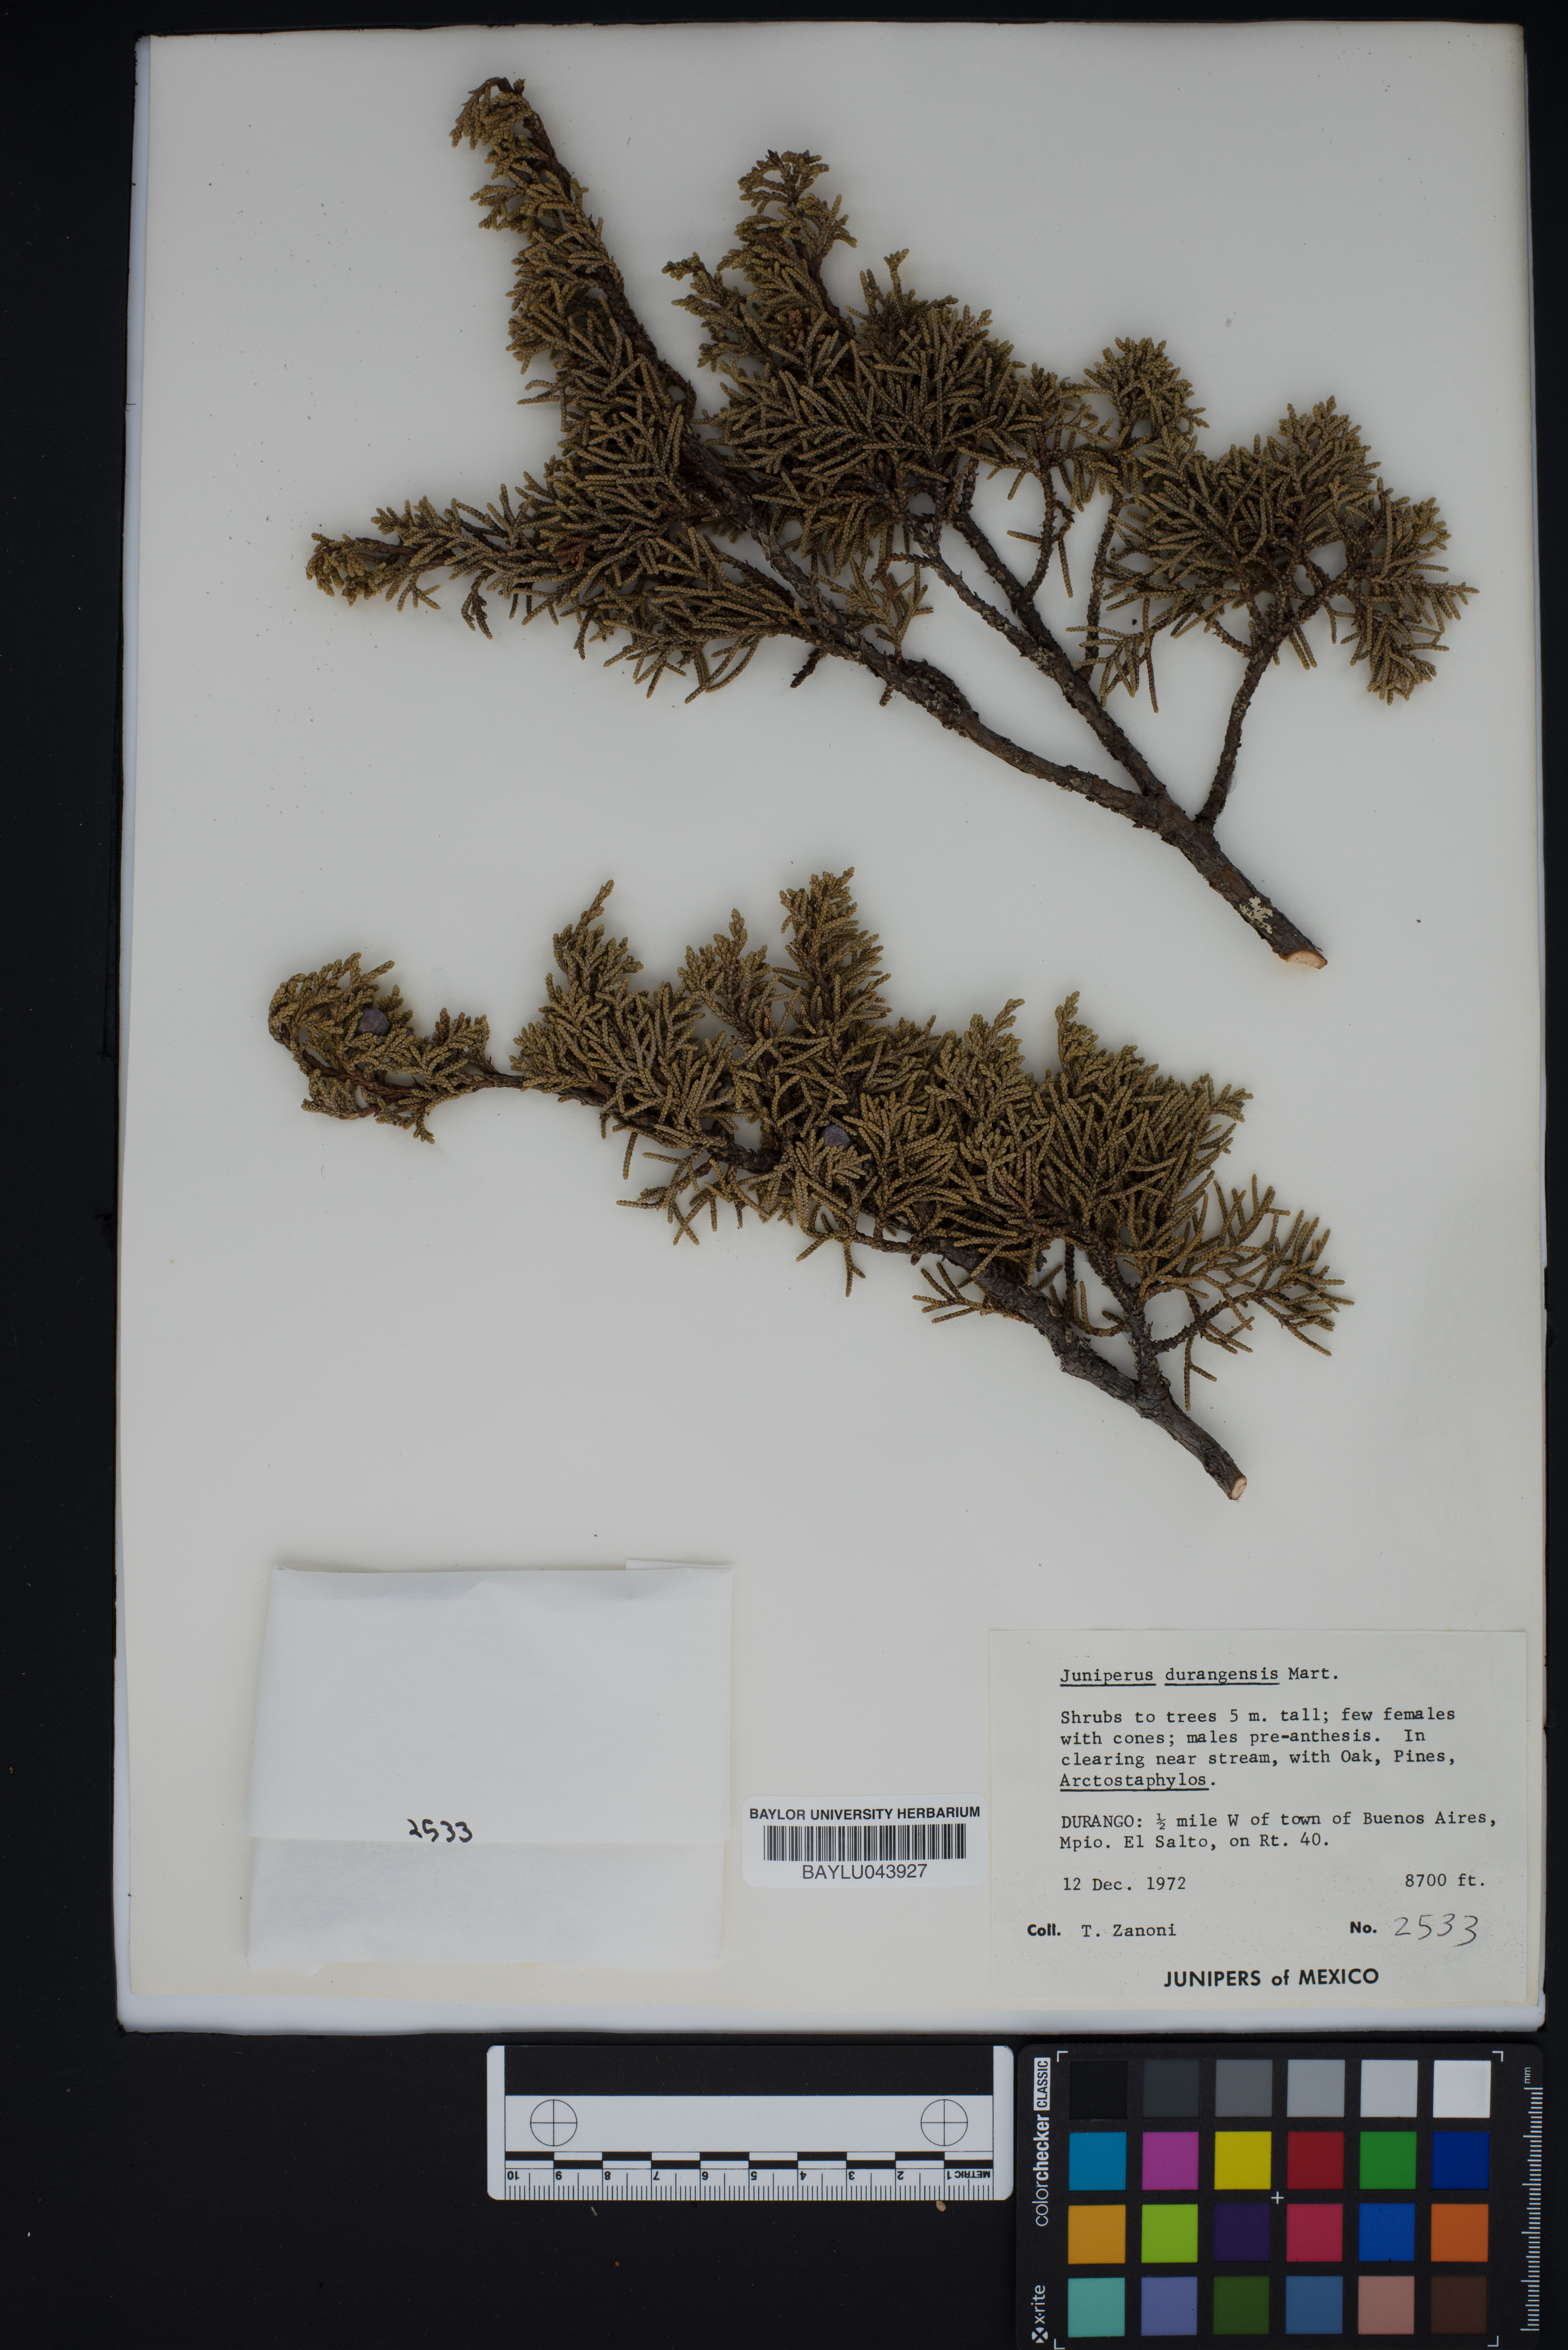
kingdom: Plantae
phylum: Tracheophyta
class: Pinopsida
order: Pinales
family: Cupressaceae
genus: Juniperus
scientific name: Juniperus durangensis
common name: Durango juniper
